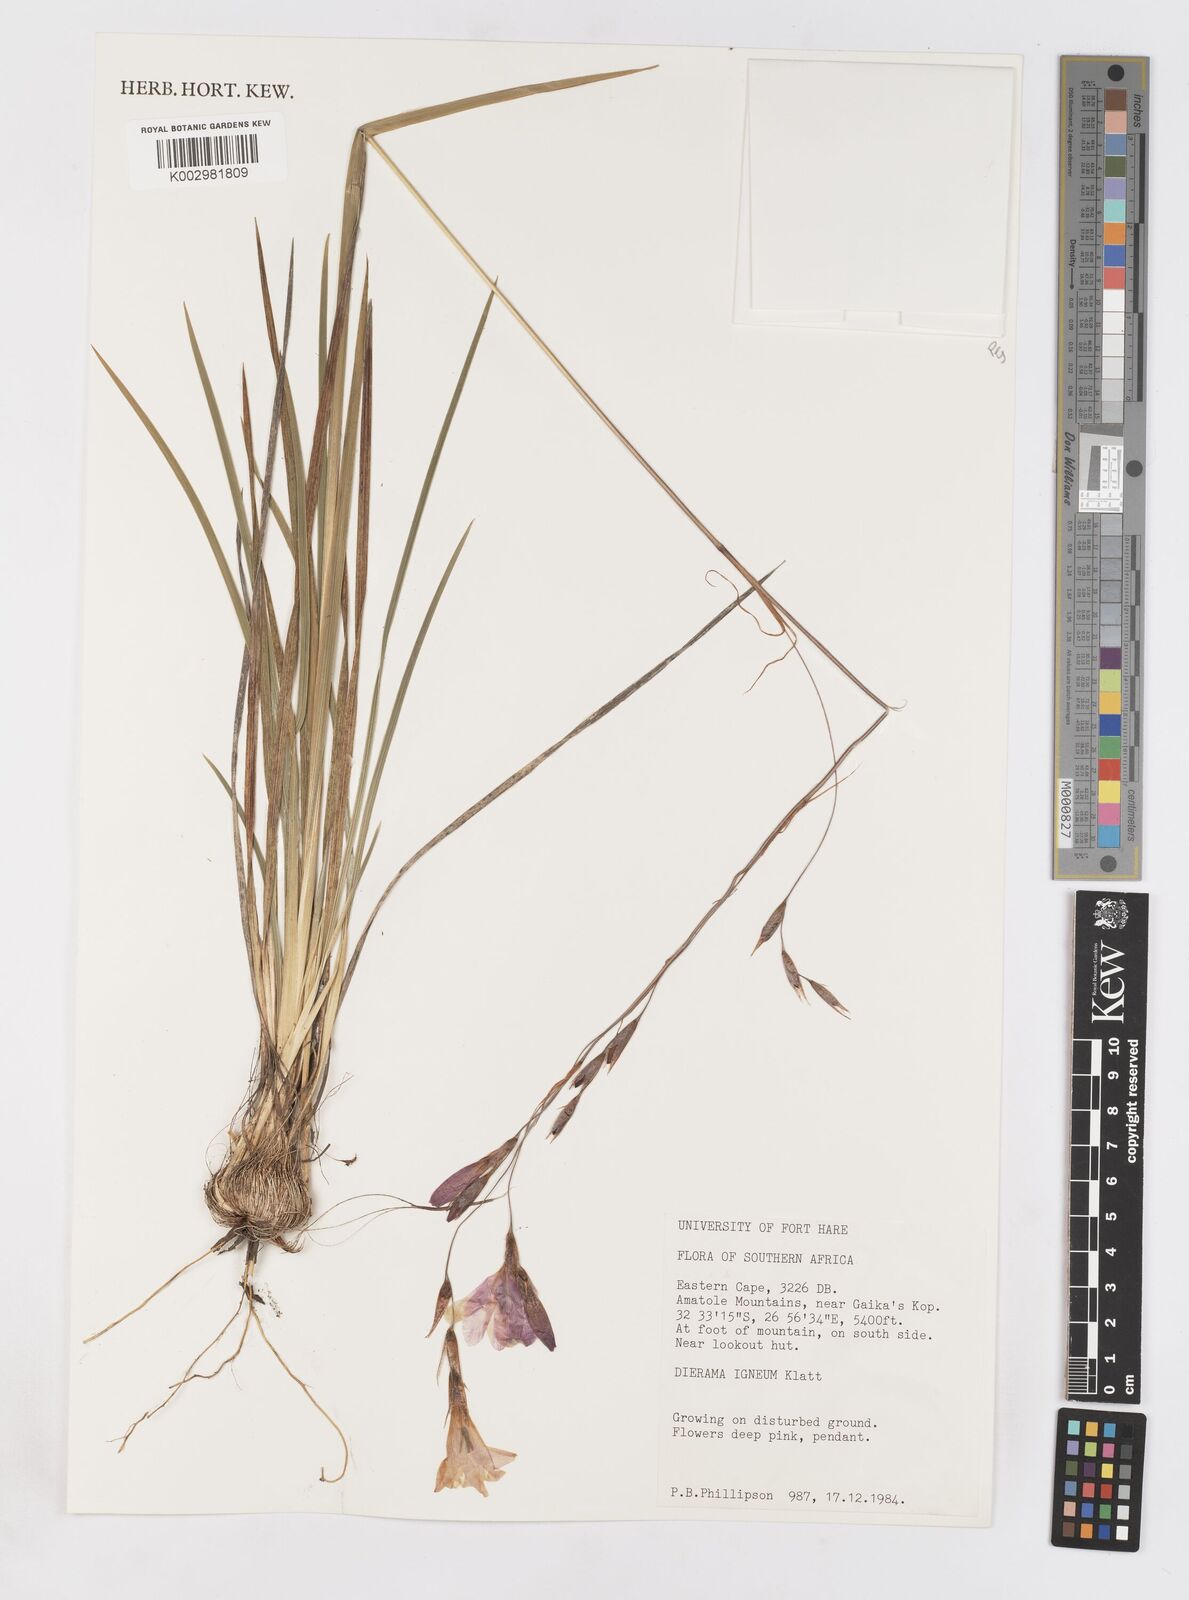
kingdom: Plantae
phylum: Tracheophyta
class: Liliopsida
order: Asparagales
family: Iridaceae
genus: Dierama
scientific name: Dierama igneum
